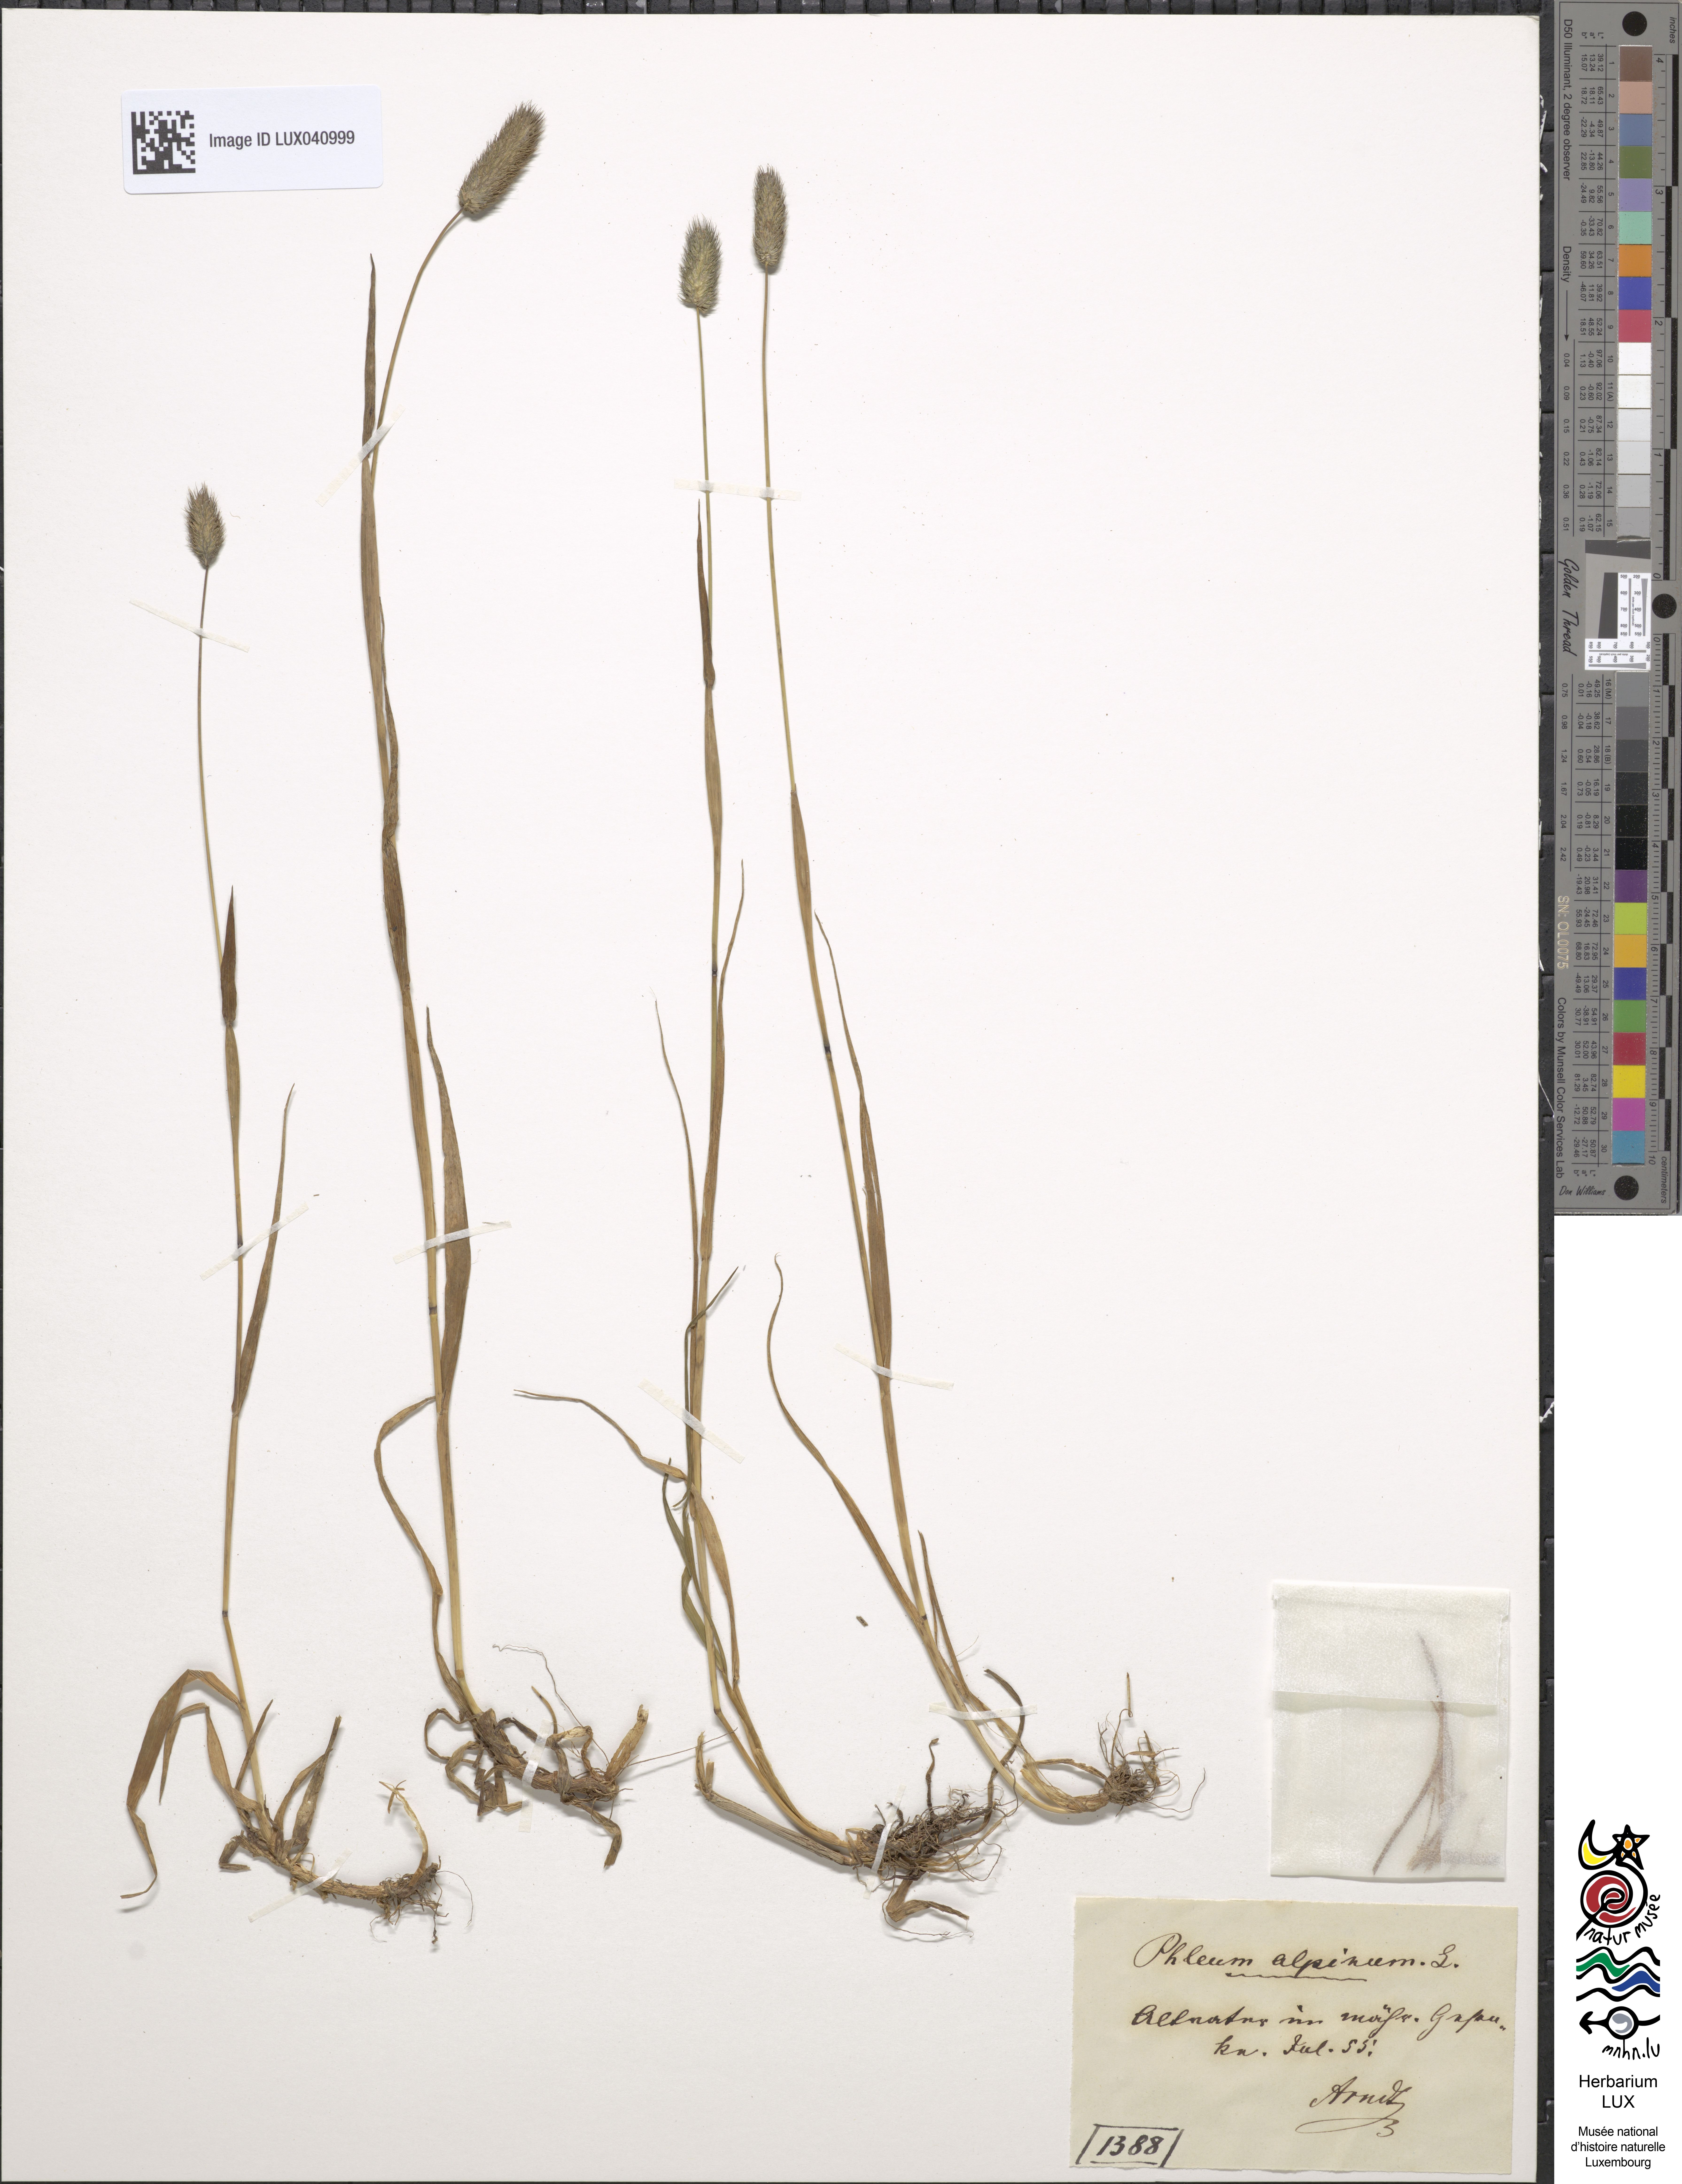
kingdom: Plantae
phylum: Tracheophyta
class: Liliopsida
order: Poales
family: Poaceae
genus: Phleum
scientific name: Phleum alpinum
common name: Alpine cat's-tail
